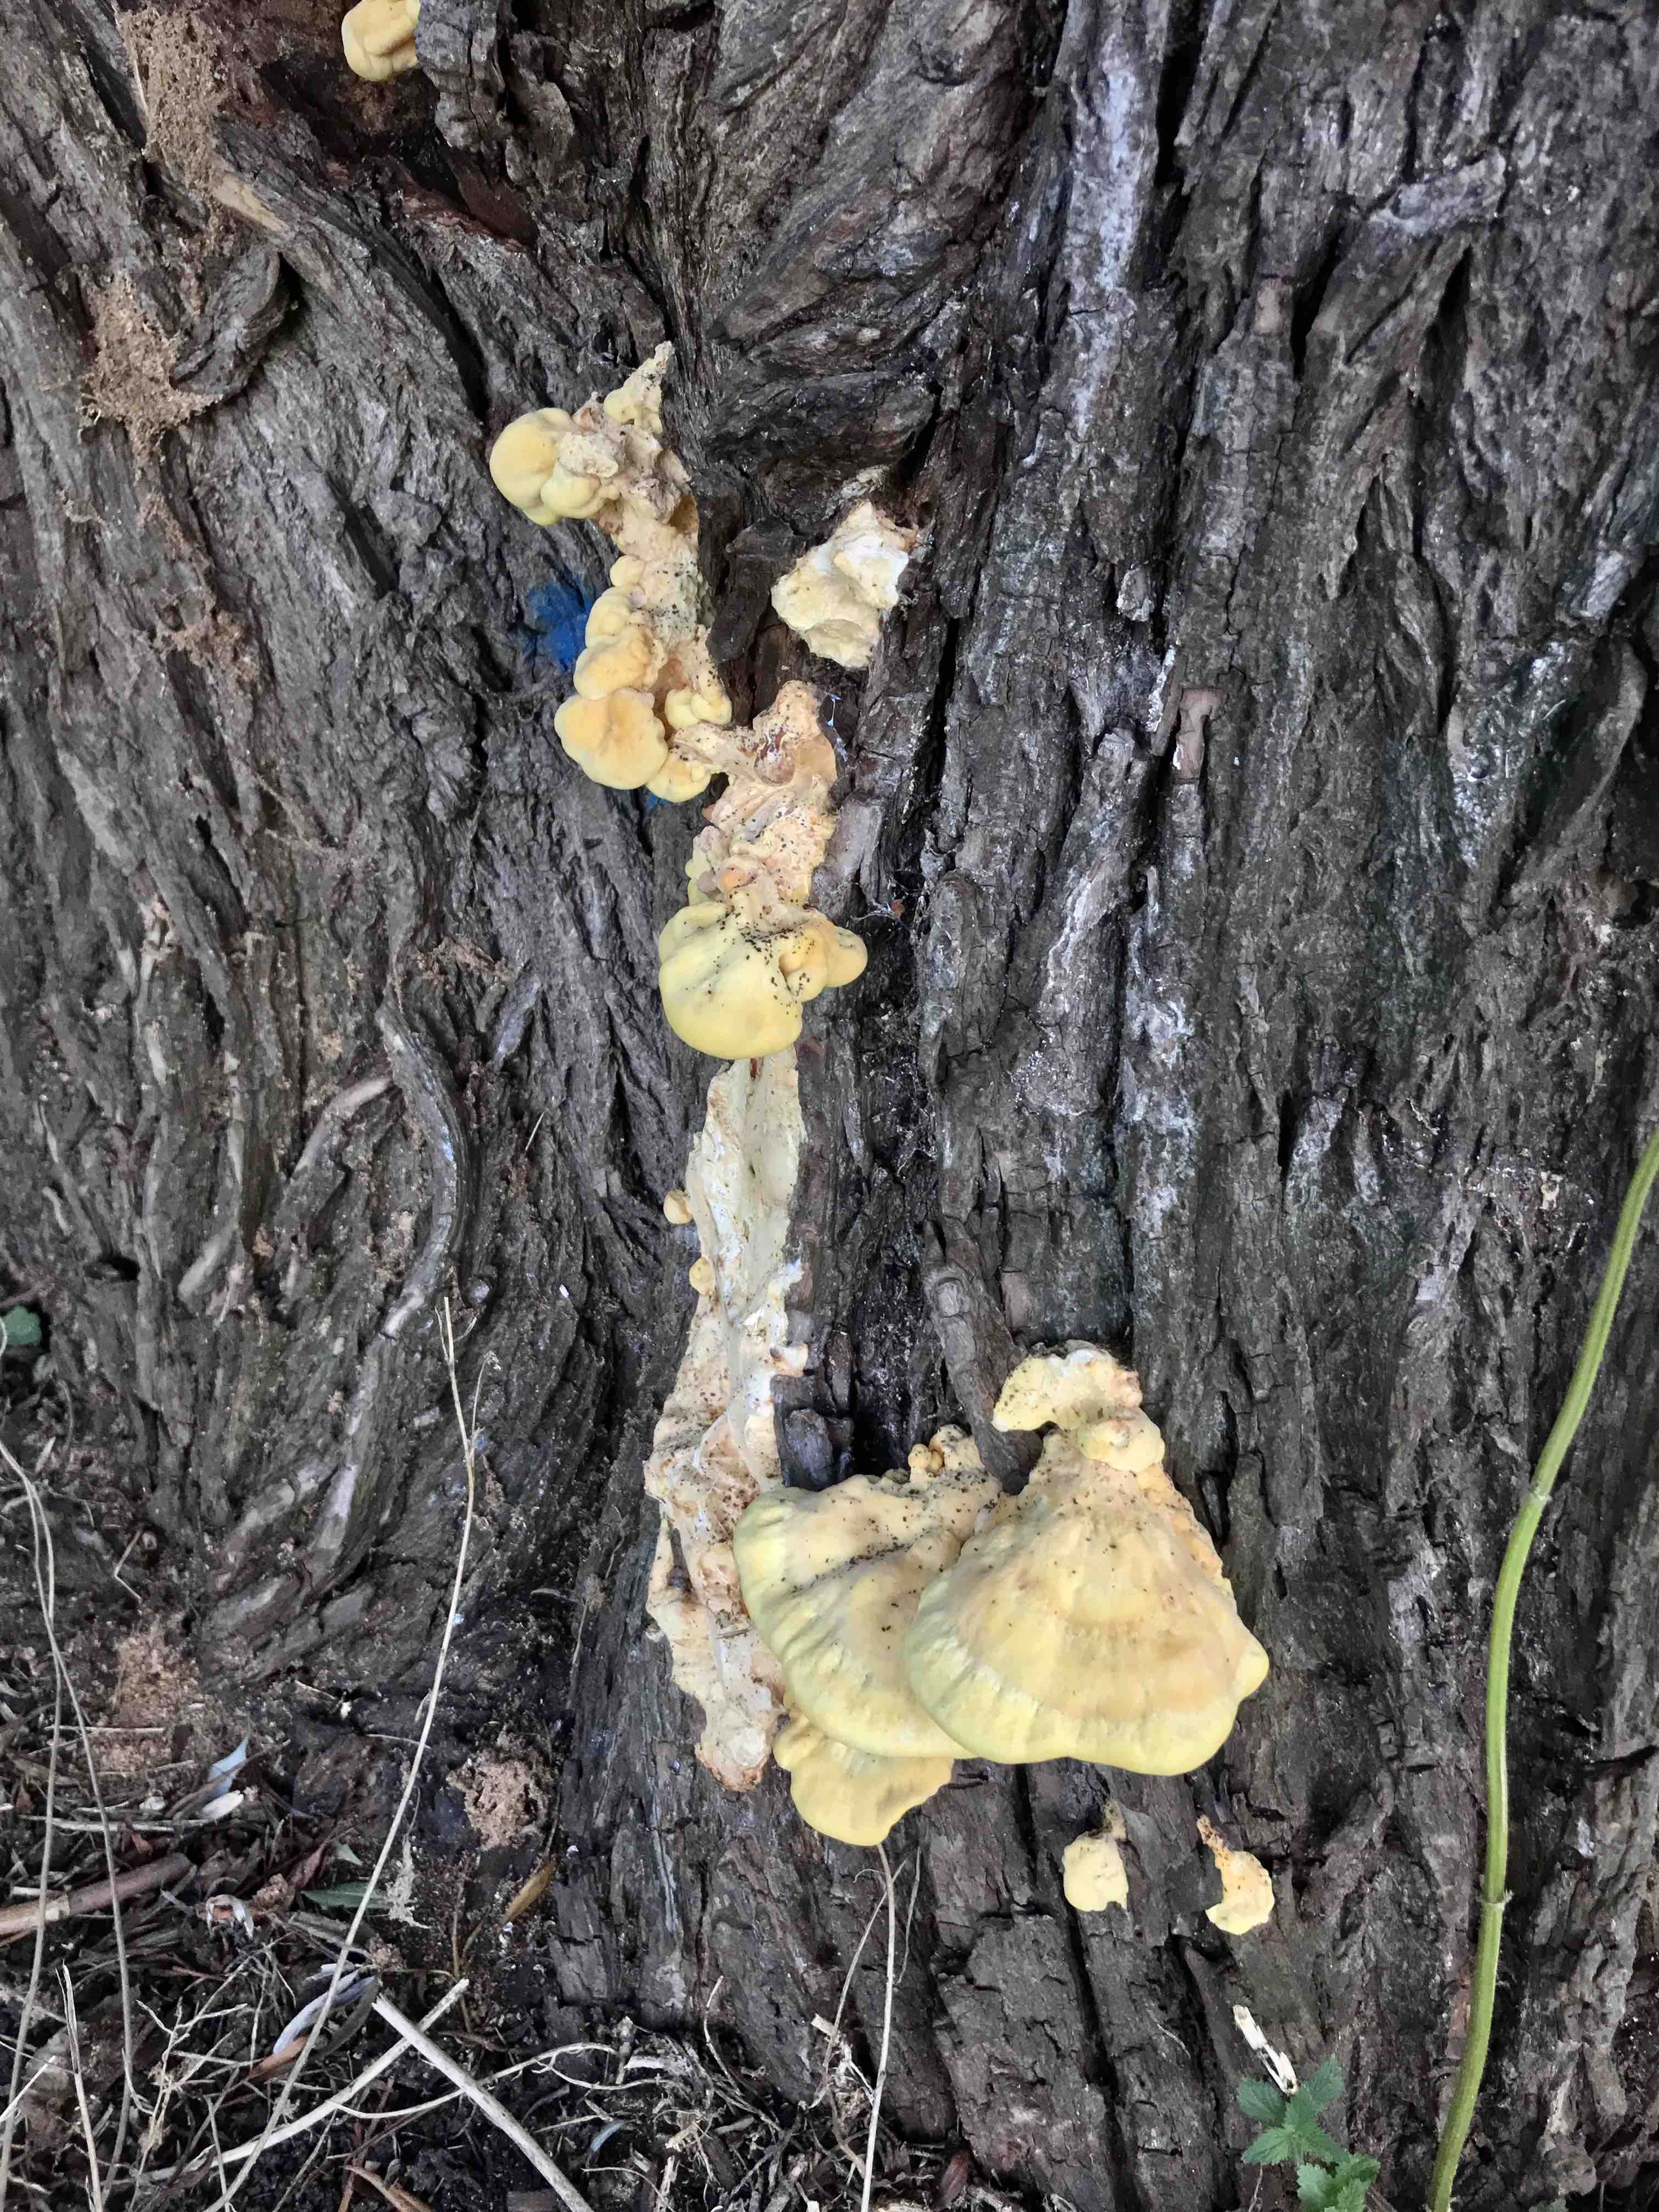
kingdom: Fungi
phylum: Basidiomycota
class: Agaricomycetes
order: Polyporales
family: Laetiporaceae
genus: Laetiporus
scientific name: Laetiporus sulphureus
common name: svovlporesvamp
